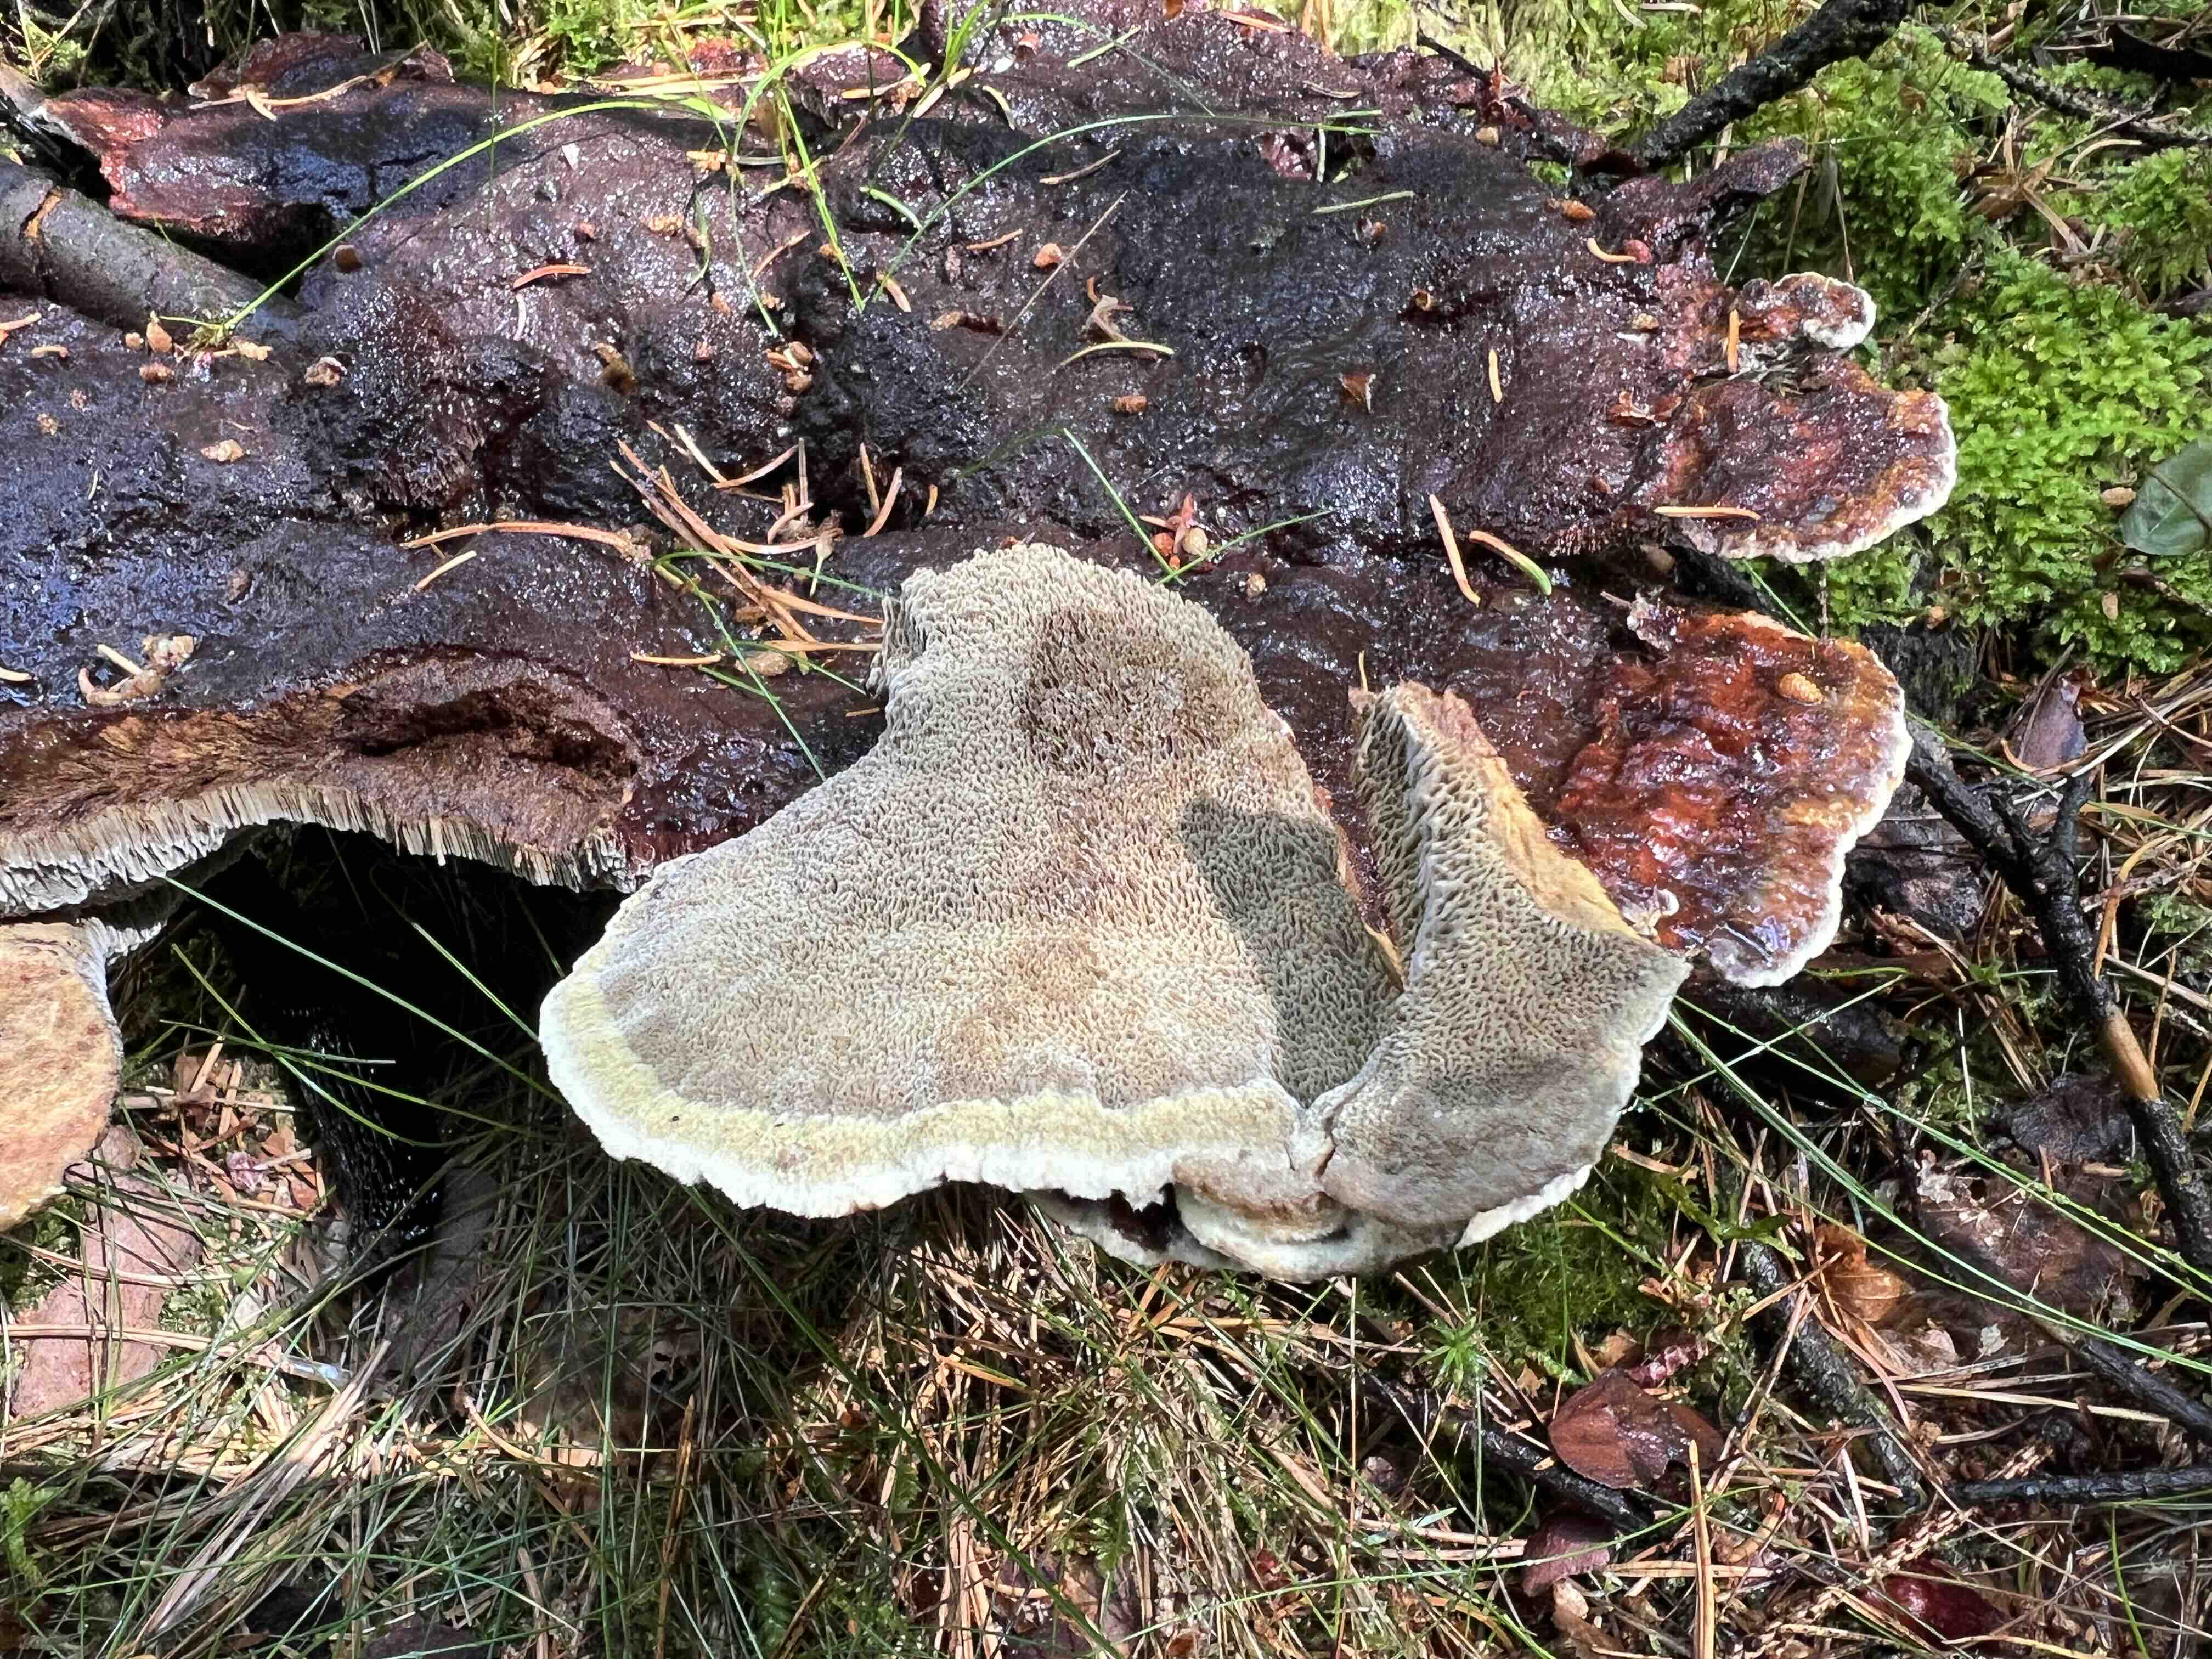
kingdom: Fungi
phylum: Basidiomycota
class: Agaricomycetes
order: Polyporales
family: Laetiporaceae
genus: Phaeolus
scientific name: Phaeolus schweinitzii
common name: brunporesvamp
